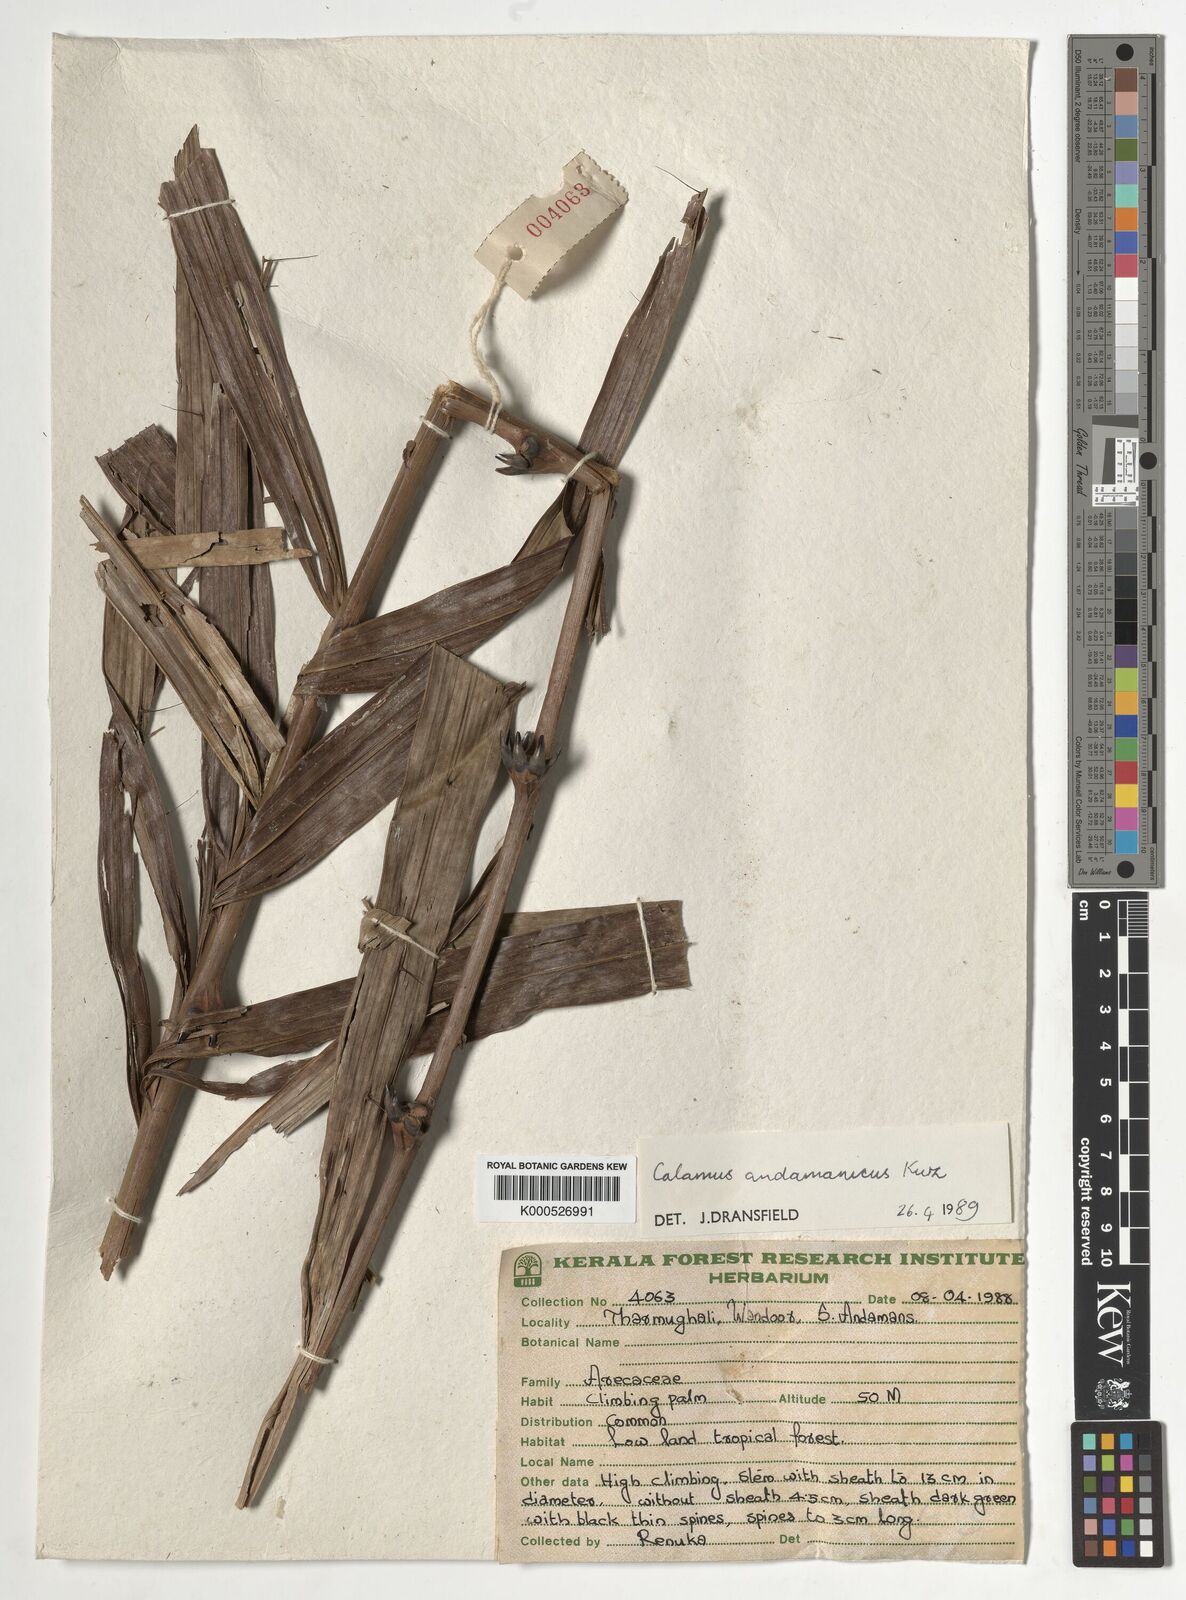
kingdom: Plantae
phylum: Tracheophyta
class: Liliopsida
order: Arecales
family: Arecaceae
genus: Calamus
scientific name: Calamus andamanicus
